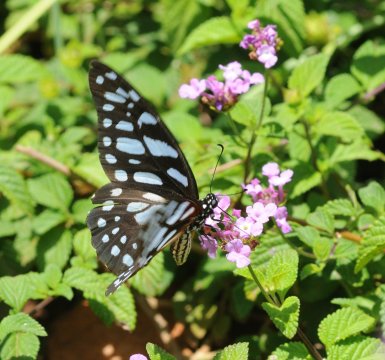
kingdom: Animalia
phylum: Arthropoda
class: Insecta
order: Lepidoptera
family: Papilionidae
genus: Graphium
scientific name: Graphium leonidas
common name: Veined Swordtail
